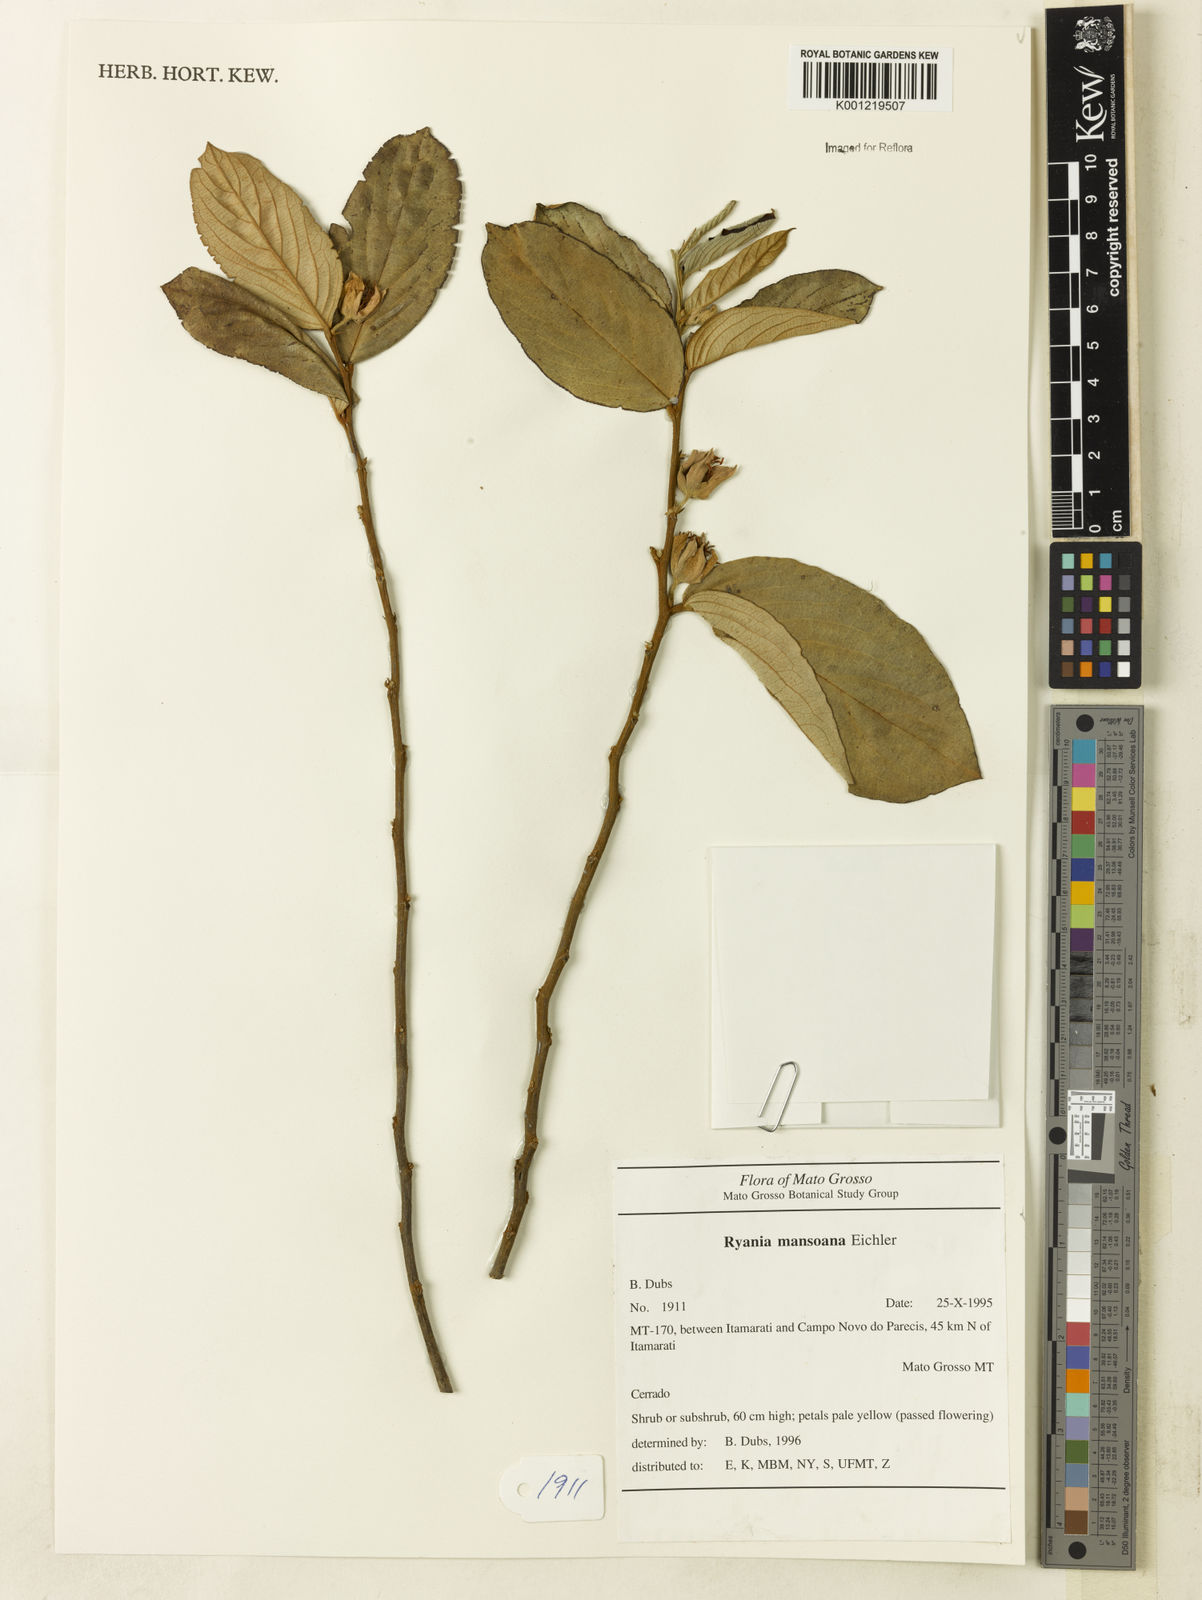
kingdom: Plantae
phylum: Tracheophyta
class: Magnoliopsida
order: Malpighiales
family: Salicaceae
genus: Ryania
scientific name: Ryania mansoana
